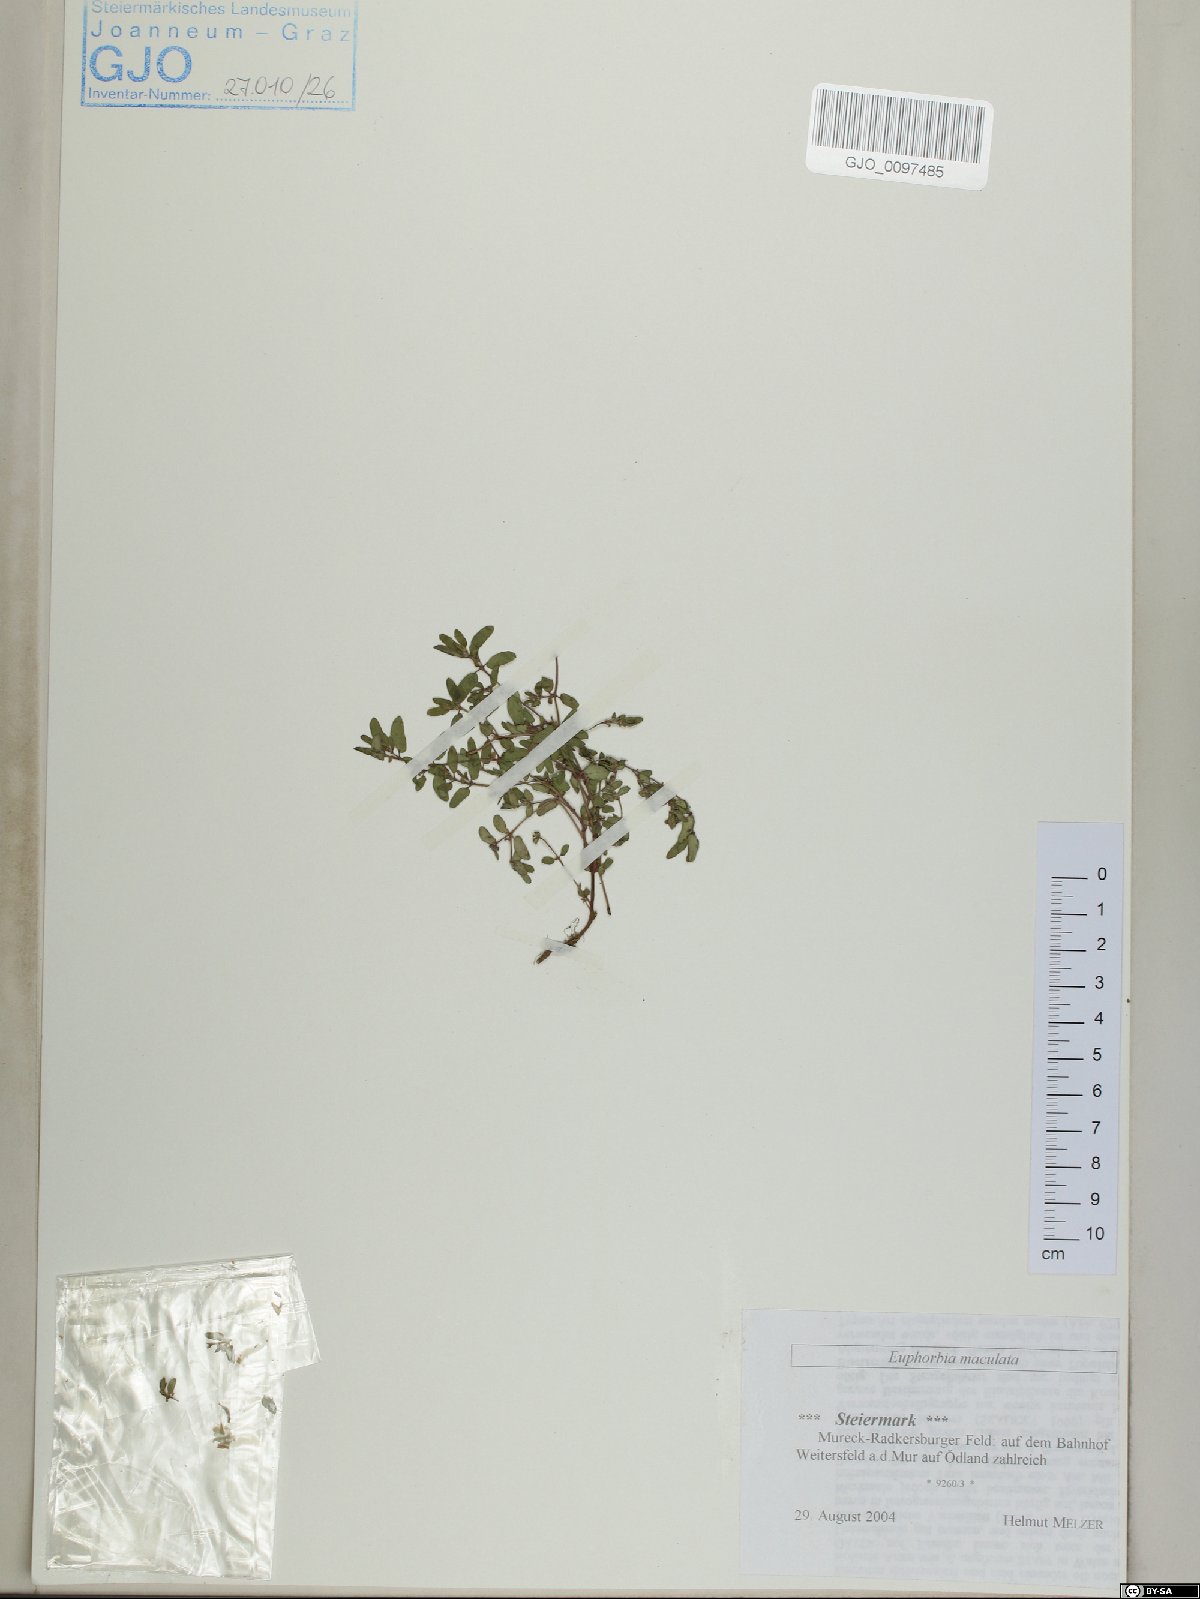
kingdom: Plantae
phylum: Tracheophyta
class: Magnoliopsida
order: Malpighiales
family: Euphorbiaceae
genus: Euphorbia
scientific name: Euphorbia maculata
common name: Spotted spurge
